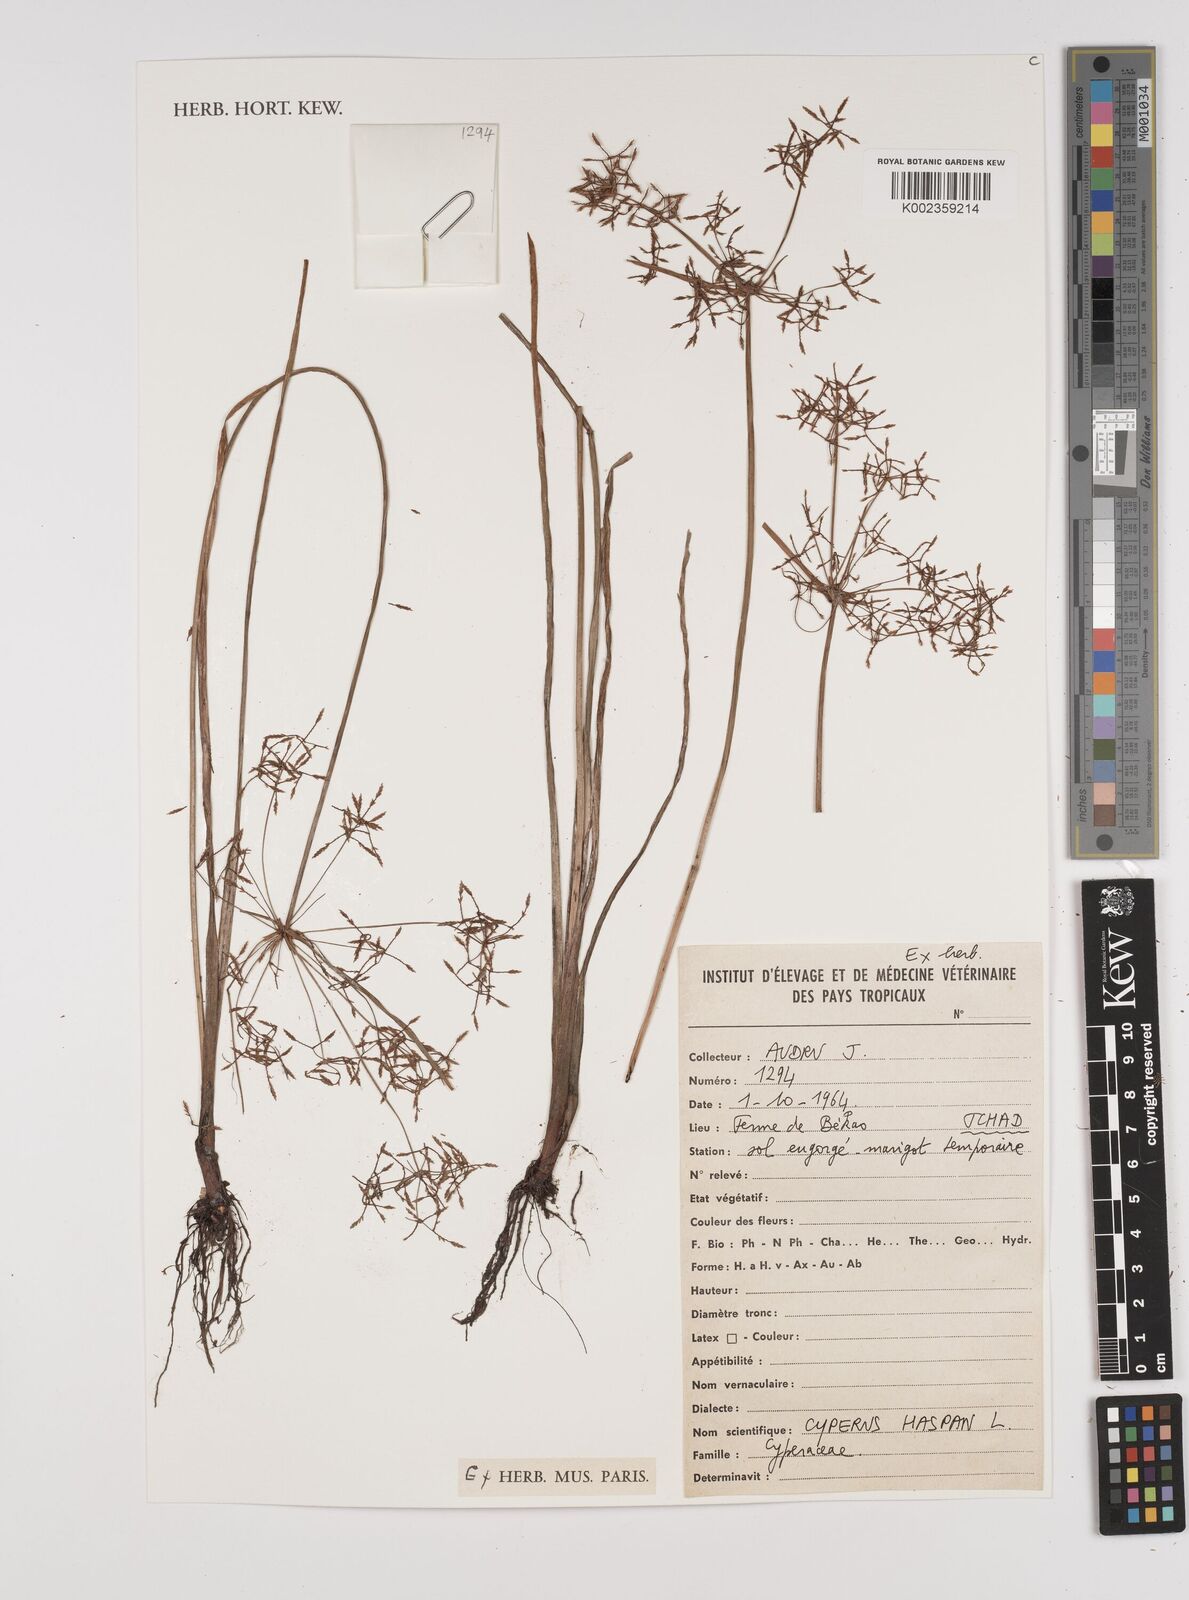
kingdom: Plantae
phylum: Tracheophyta
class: Liliopsida
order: Poales
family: Cyperaceae
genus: Cyperus
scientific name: Cyperus haspan
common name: Haspan flatsedge
